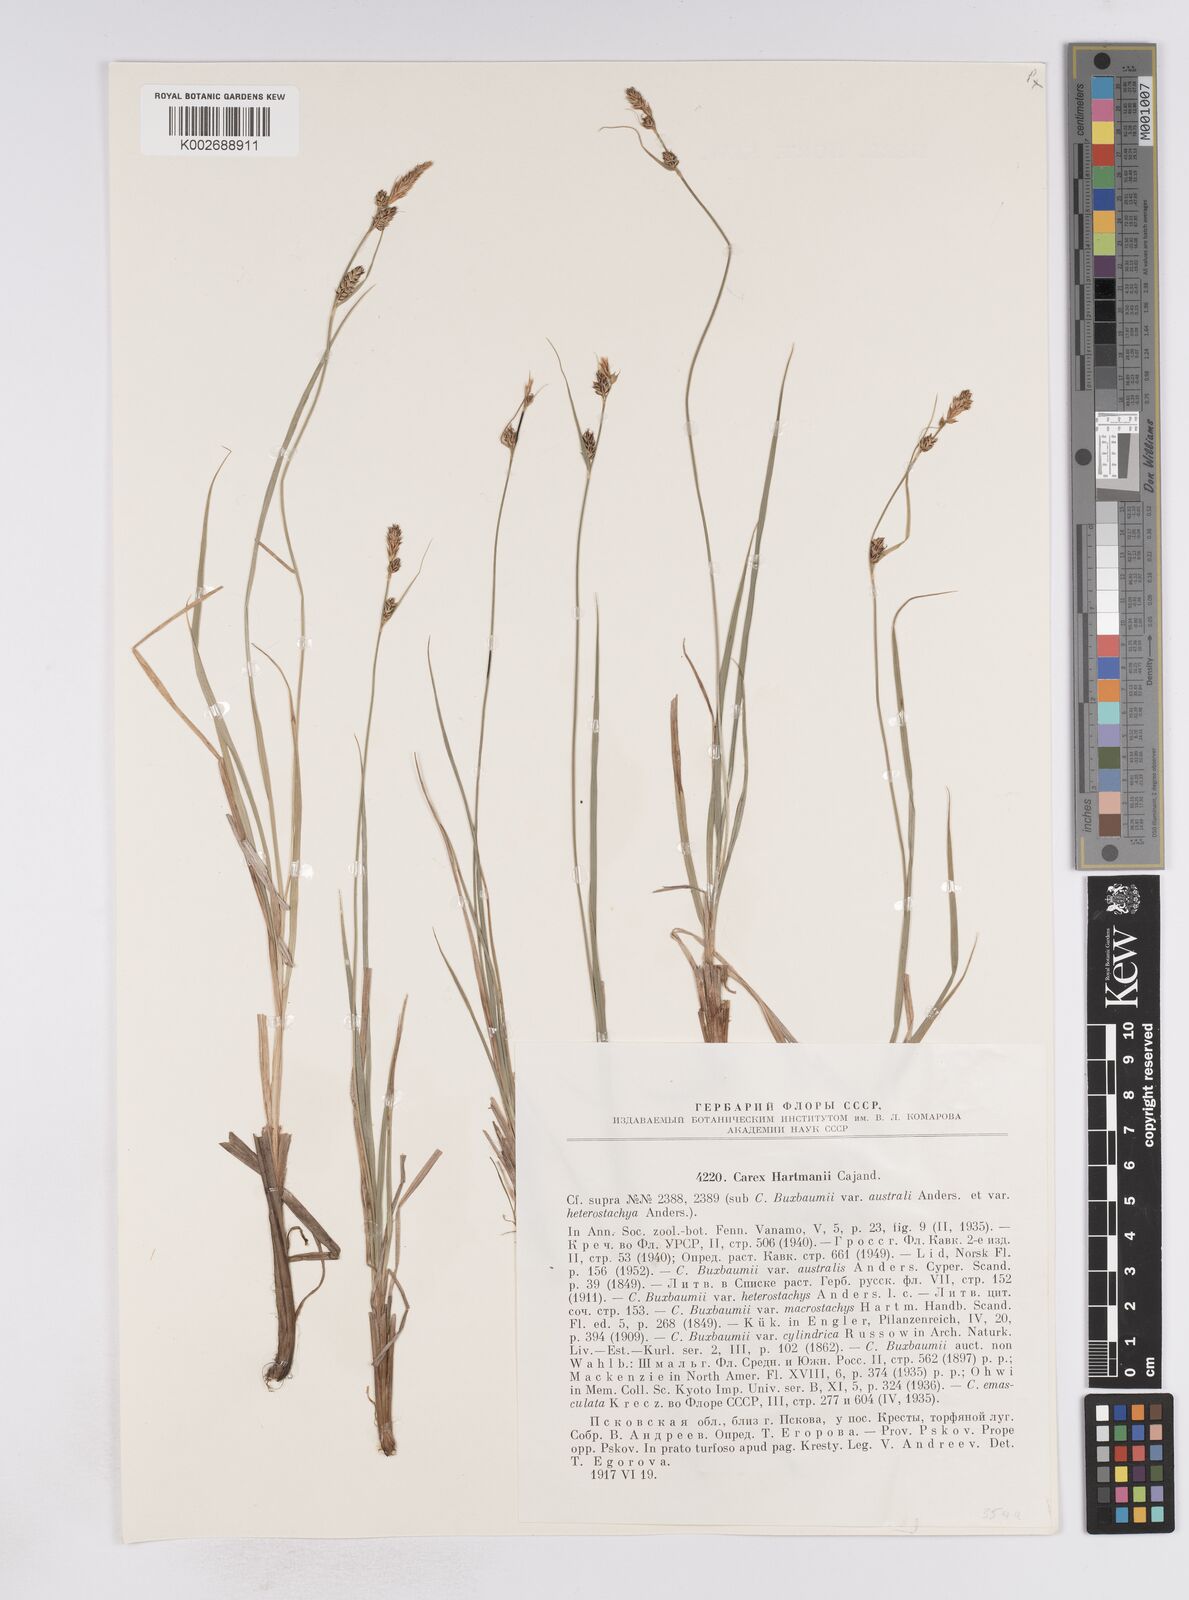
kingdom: Plantae
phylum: Tracheophyta
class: Liliopsida
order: Poales
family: Cyperaceae
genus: Carex
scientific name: Carex hartmaniorum
